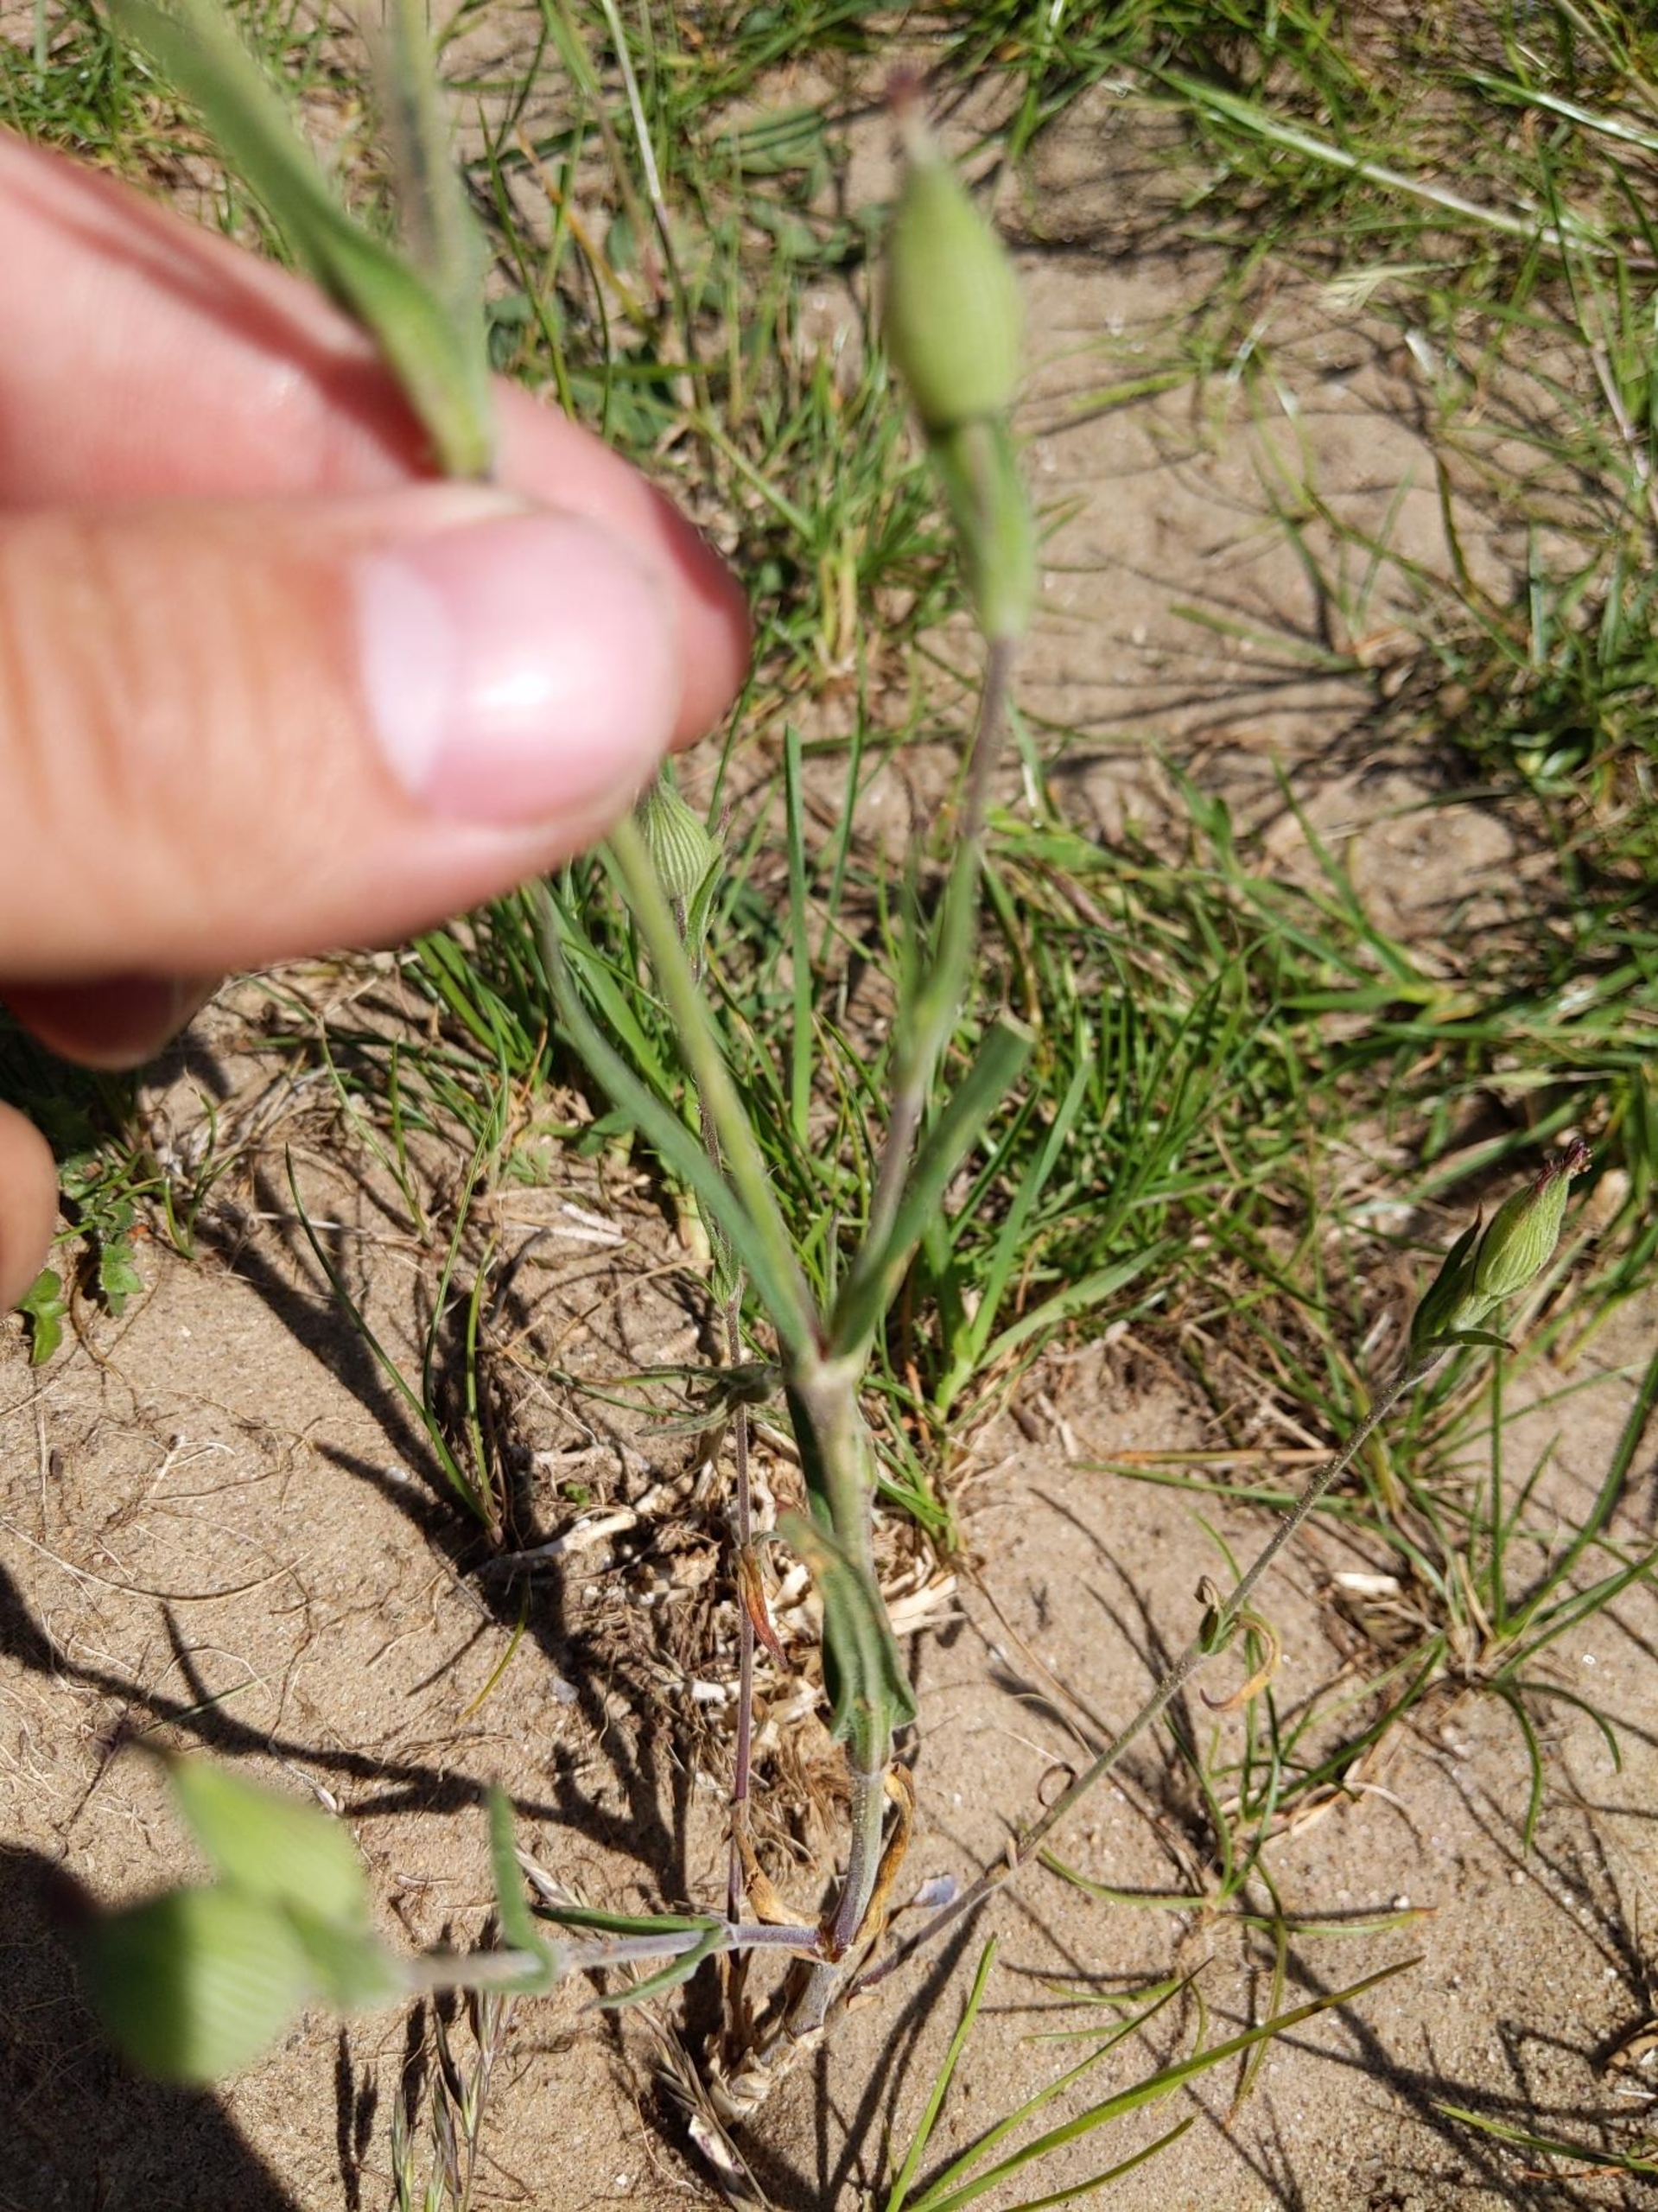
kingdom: Plantae
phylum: Tracheophyta
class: Magnoliopsida
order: Caryophyllales
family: Caryophyllaceae
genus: Silene
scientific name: Silene conica
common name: Kegle-limurt
